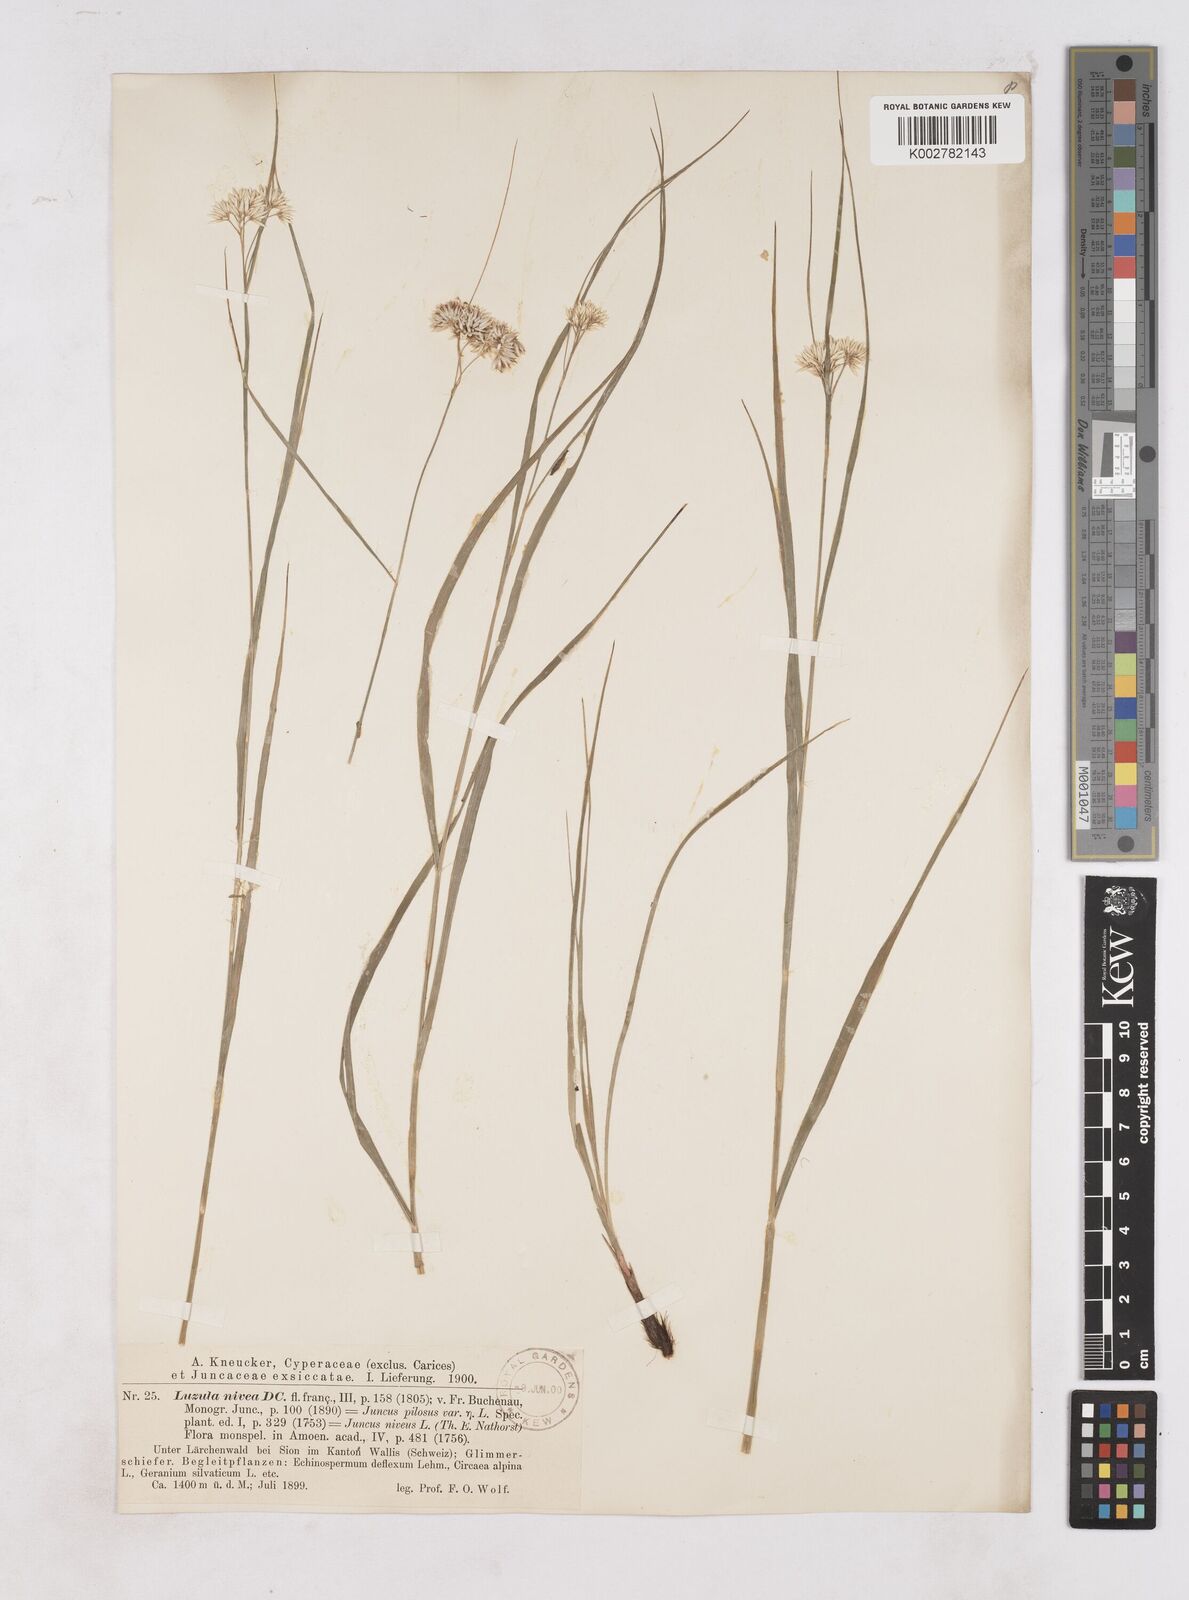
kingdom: Plantae
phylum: Tracheophyta
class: Liliopsida
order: Poales
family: Juncaceae
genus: Luzula
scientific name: Luzula nivea
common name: Snow-white wood-rush
